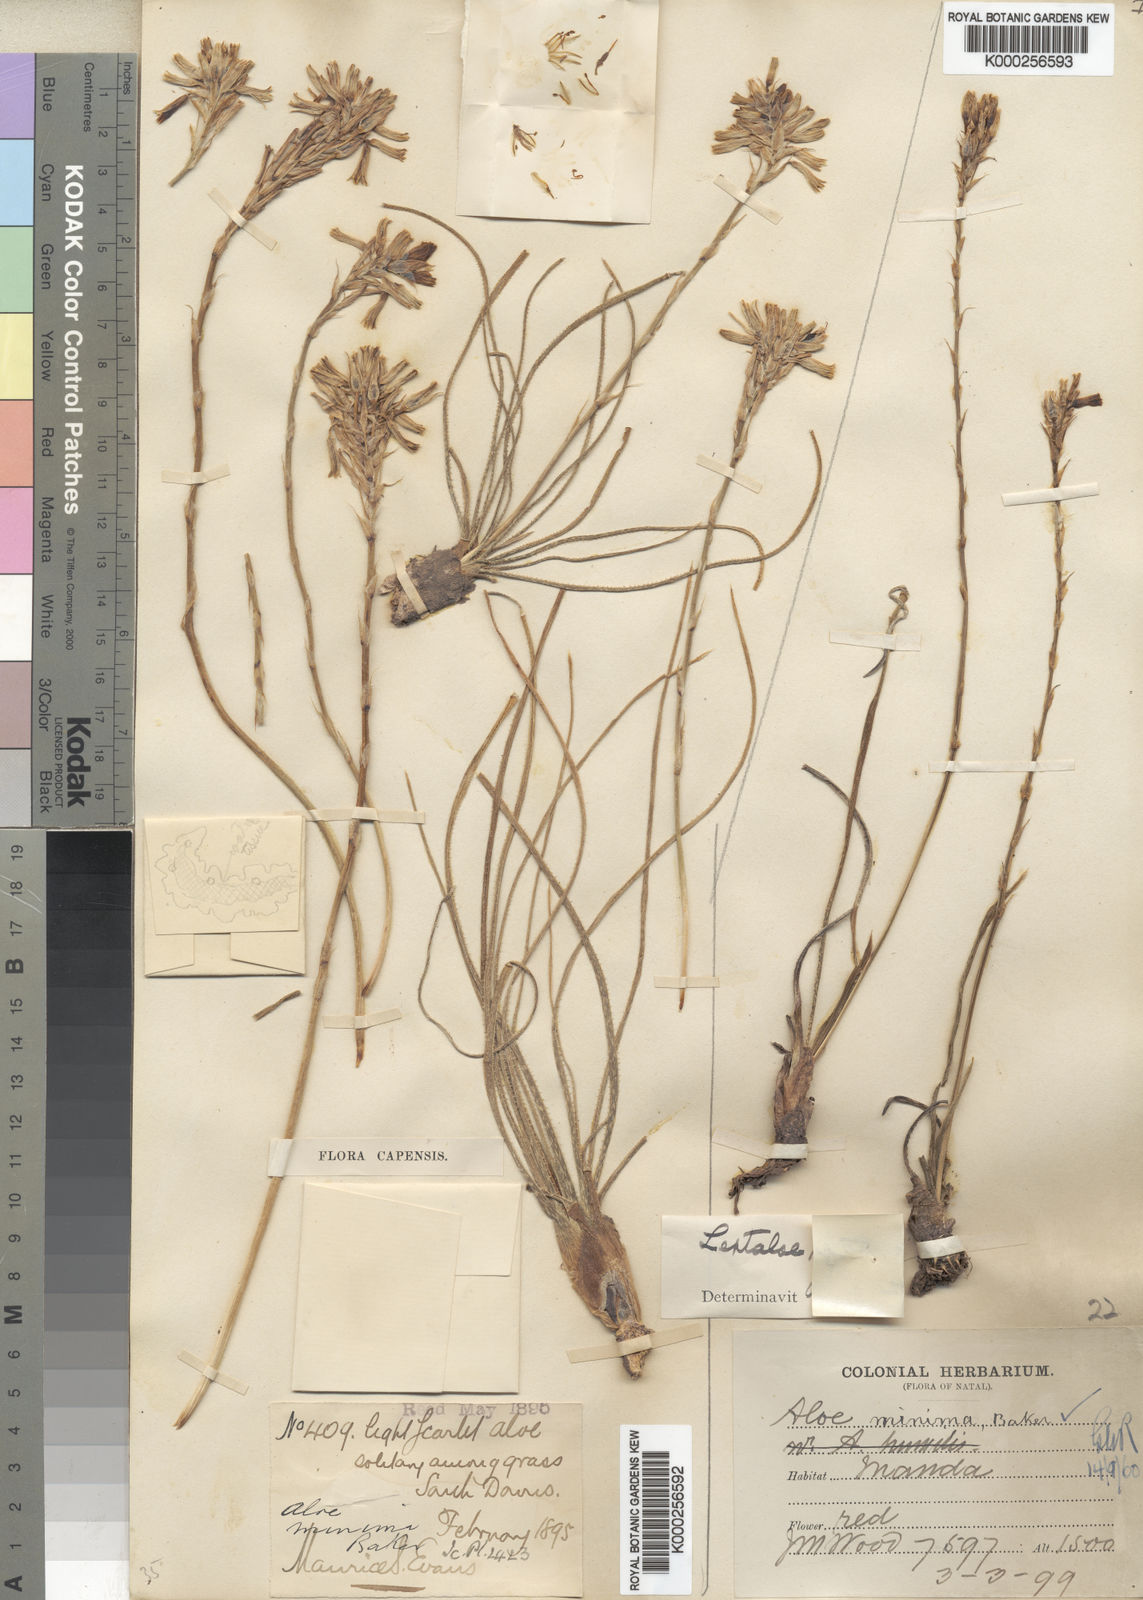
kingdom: Plantae
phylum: Tracheophyta
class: Liliopsida
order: Asparagales
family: Asphodelaceae
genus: Aloe
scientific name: Aloe minima
